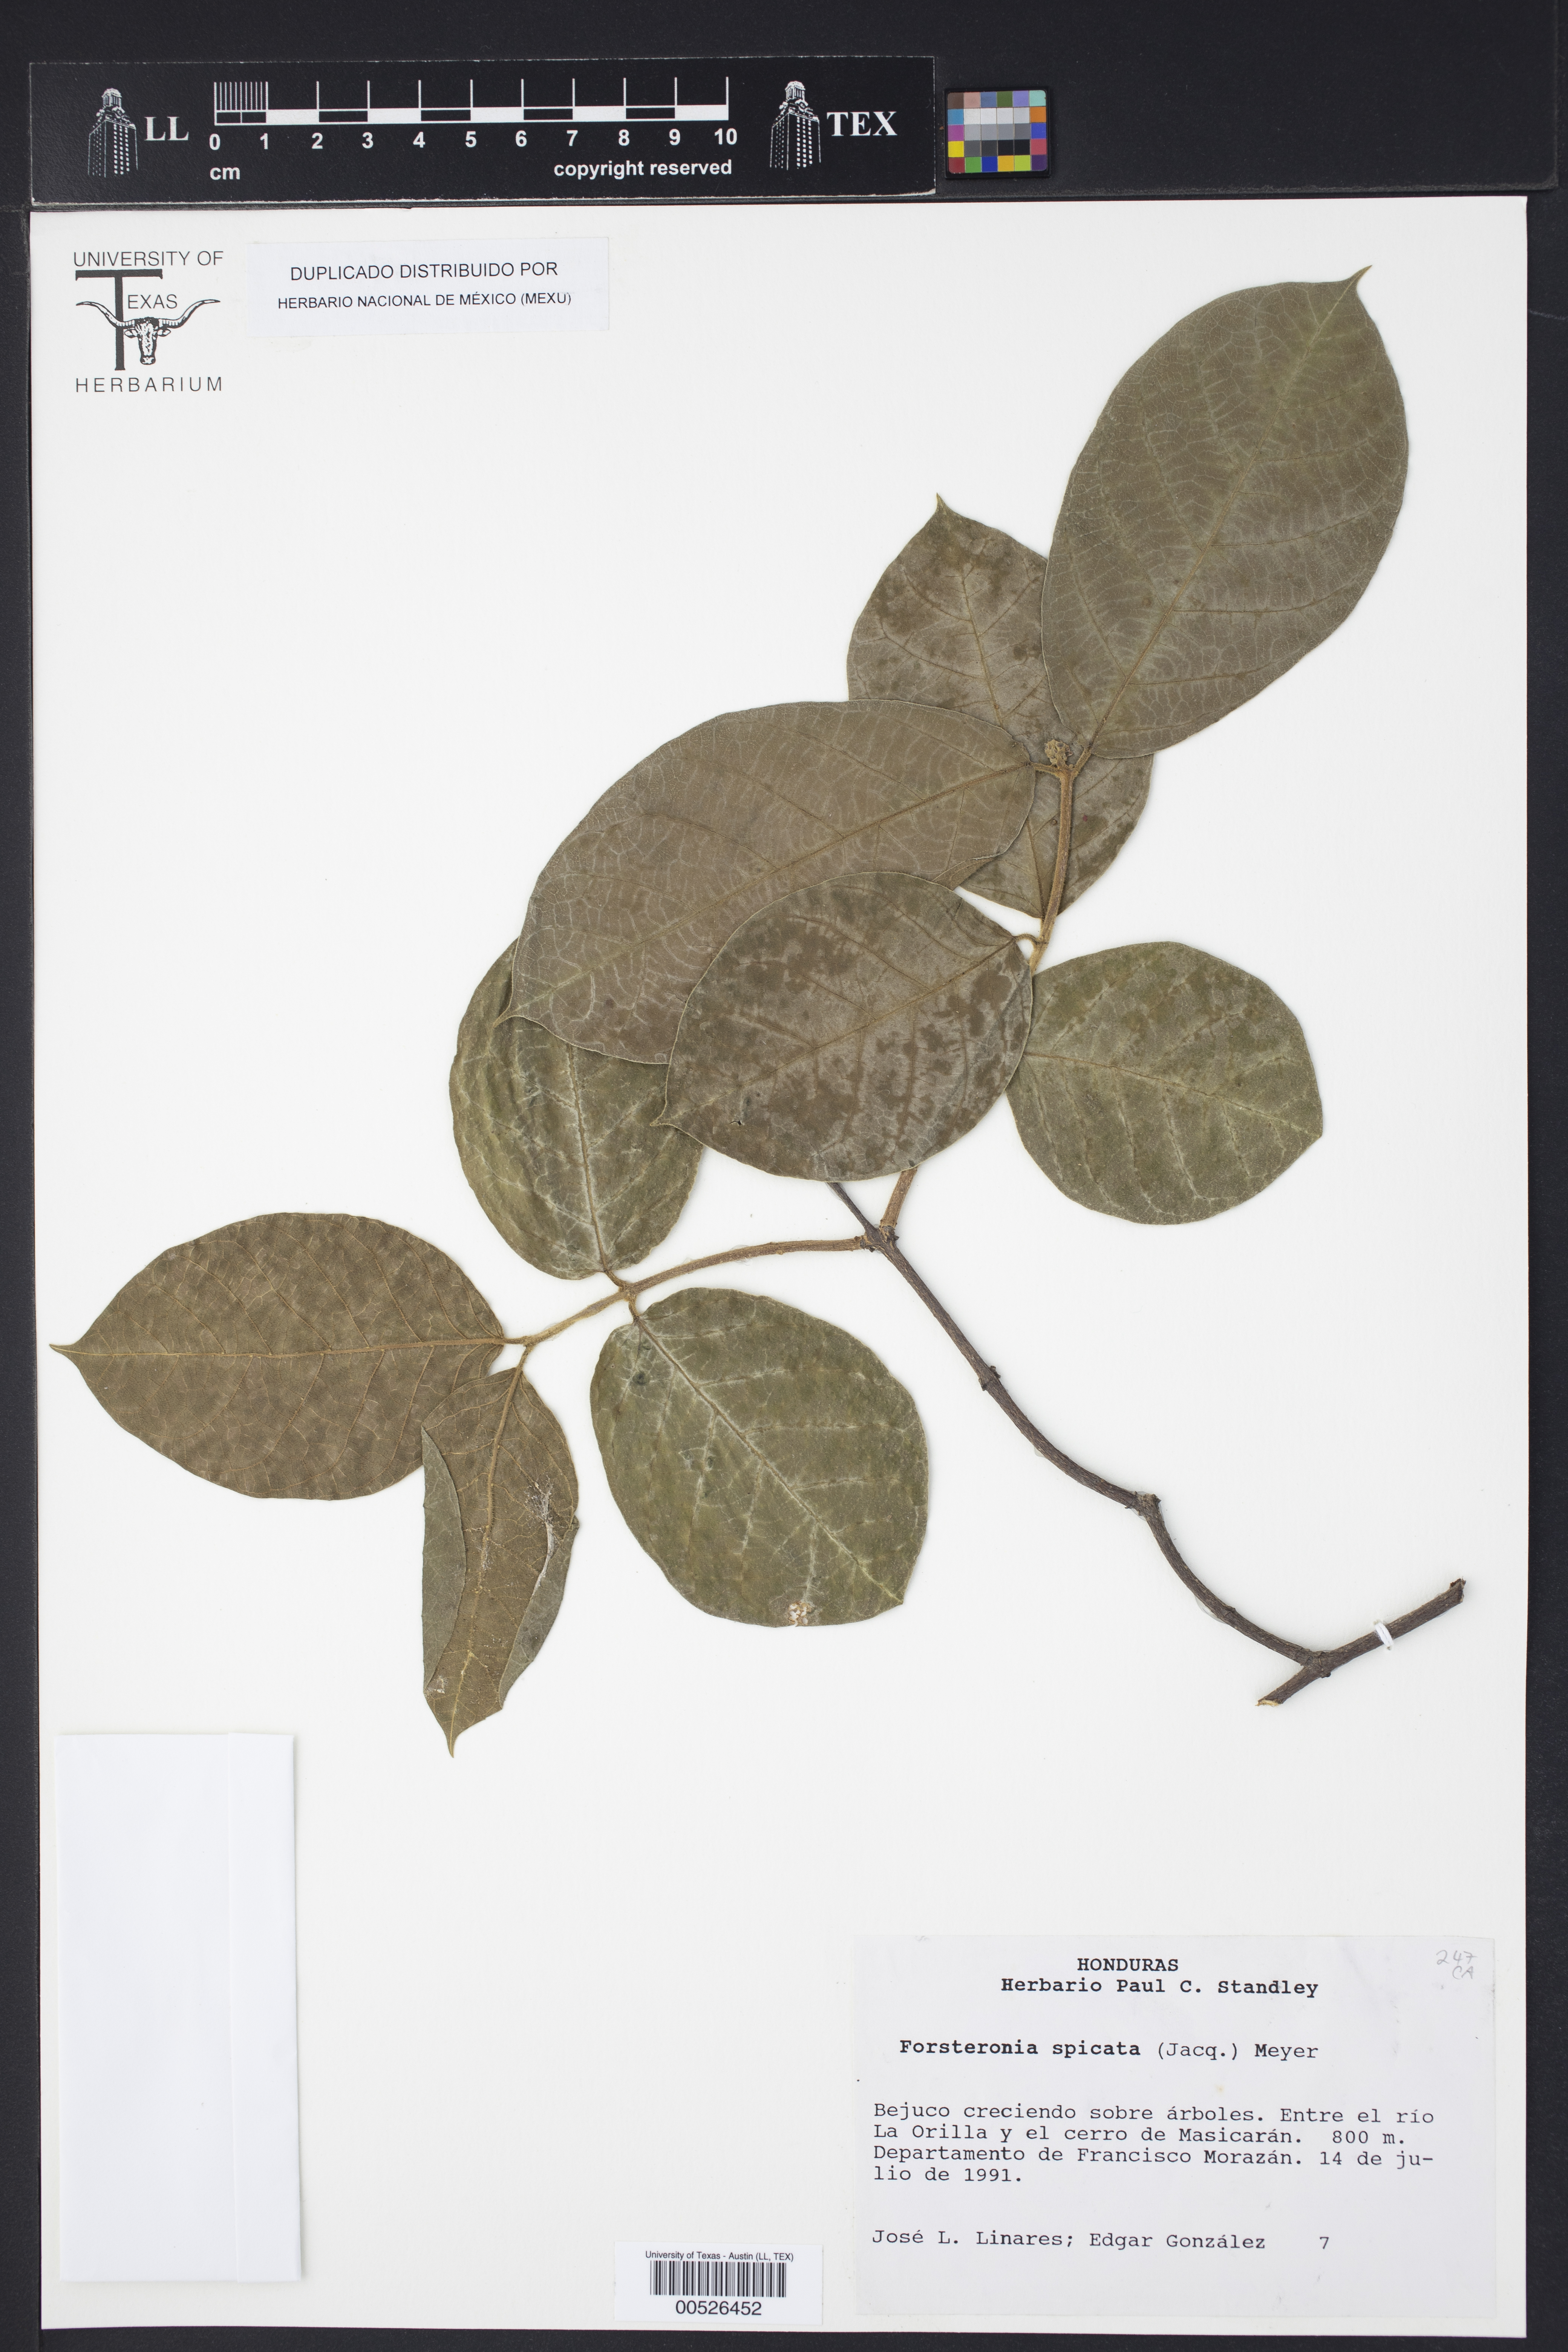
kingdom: Plantae
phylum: Tracheophyta
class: Magnoliopsida
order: Gentianales
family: Apocynaceae
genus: Forsteronia
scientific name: Forsteronia spicata
